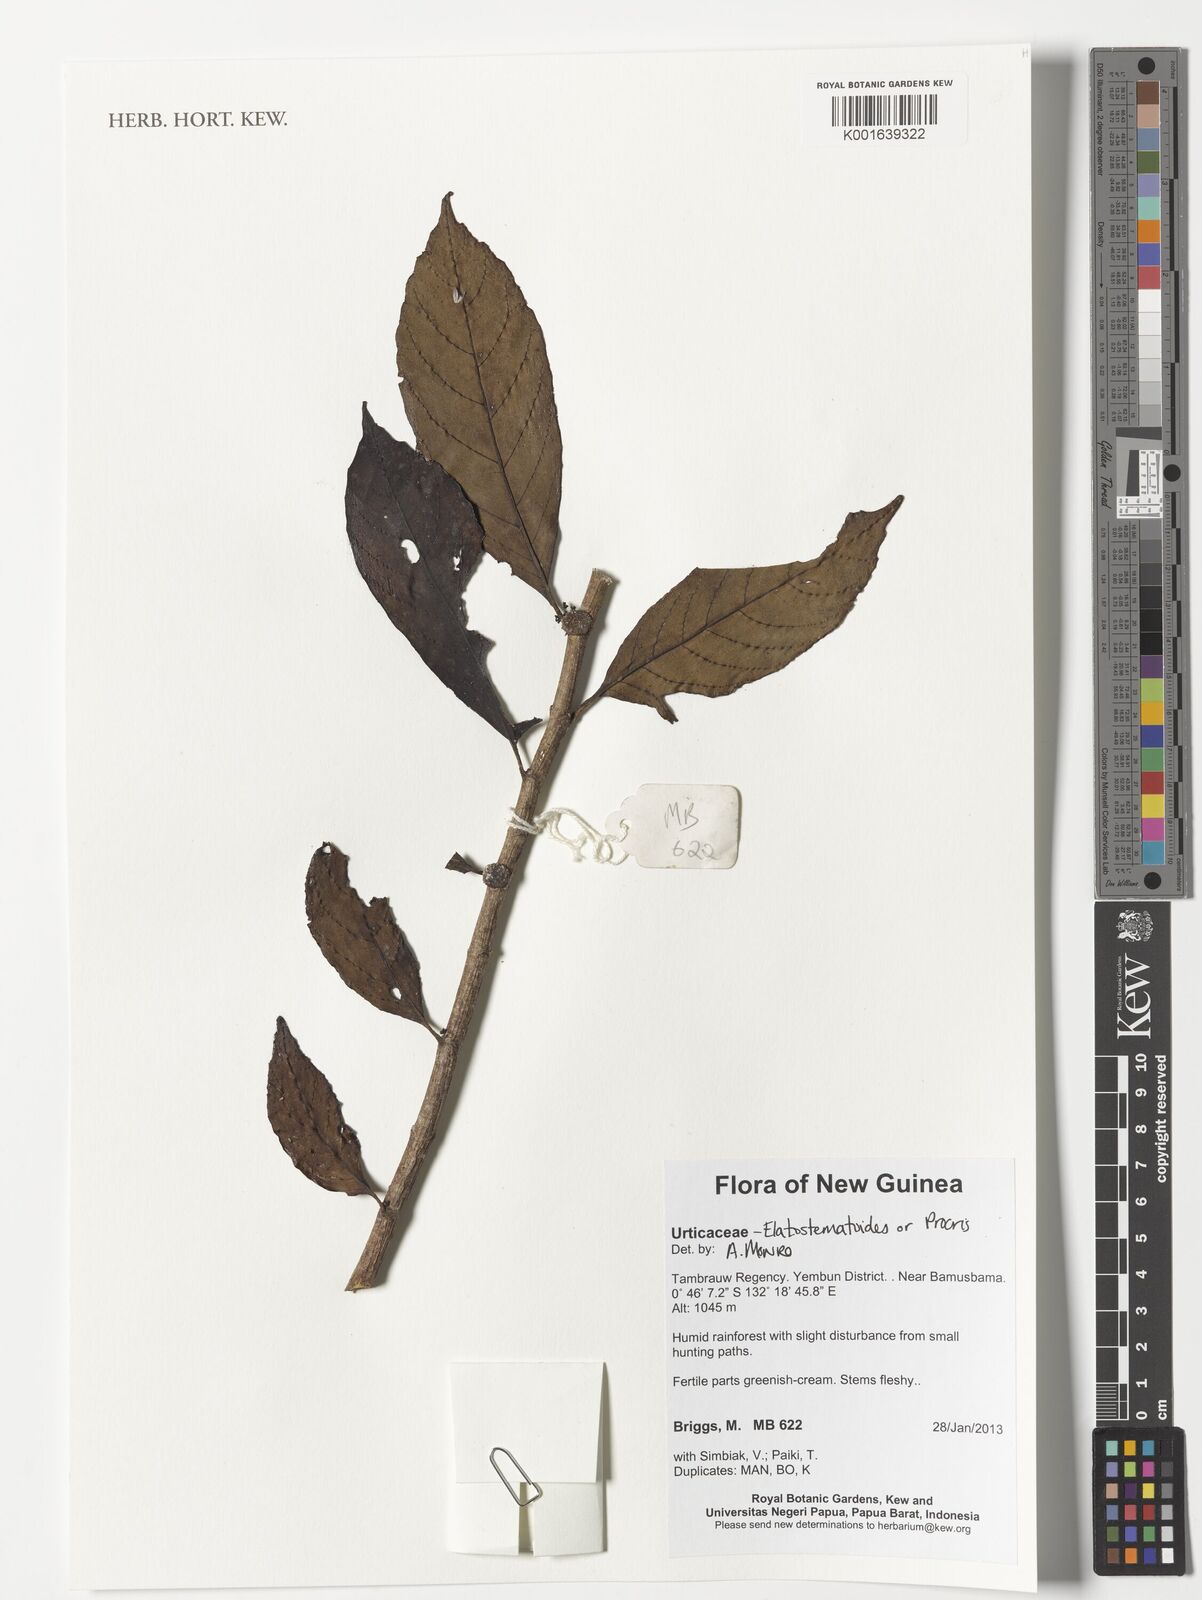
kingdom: Plantae
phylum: Tracheophyta
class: Magnoliopsida
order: Rosales
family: Urticaceae
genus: Elatostematoides
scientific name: Elatostematoides
